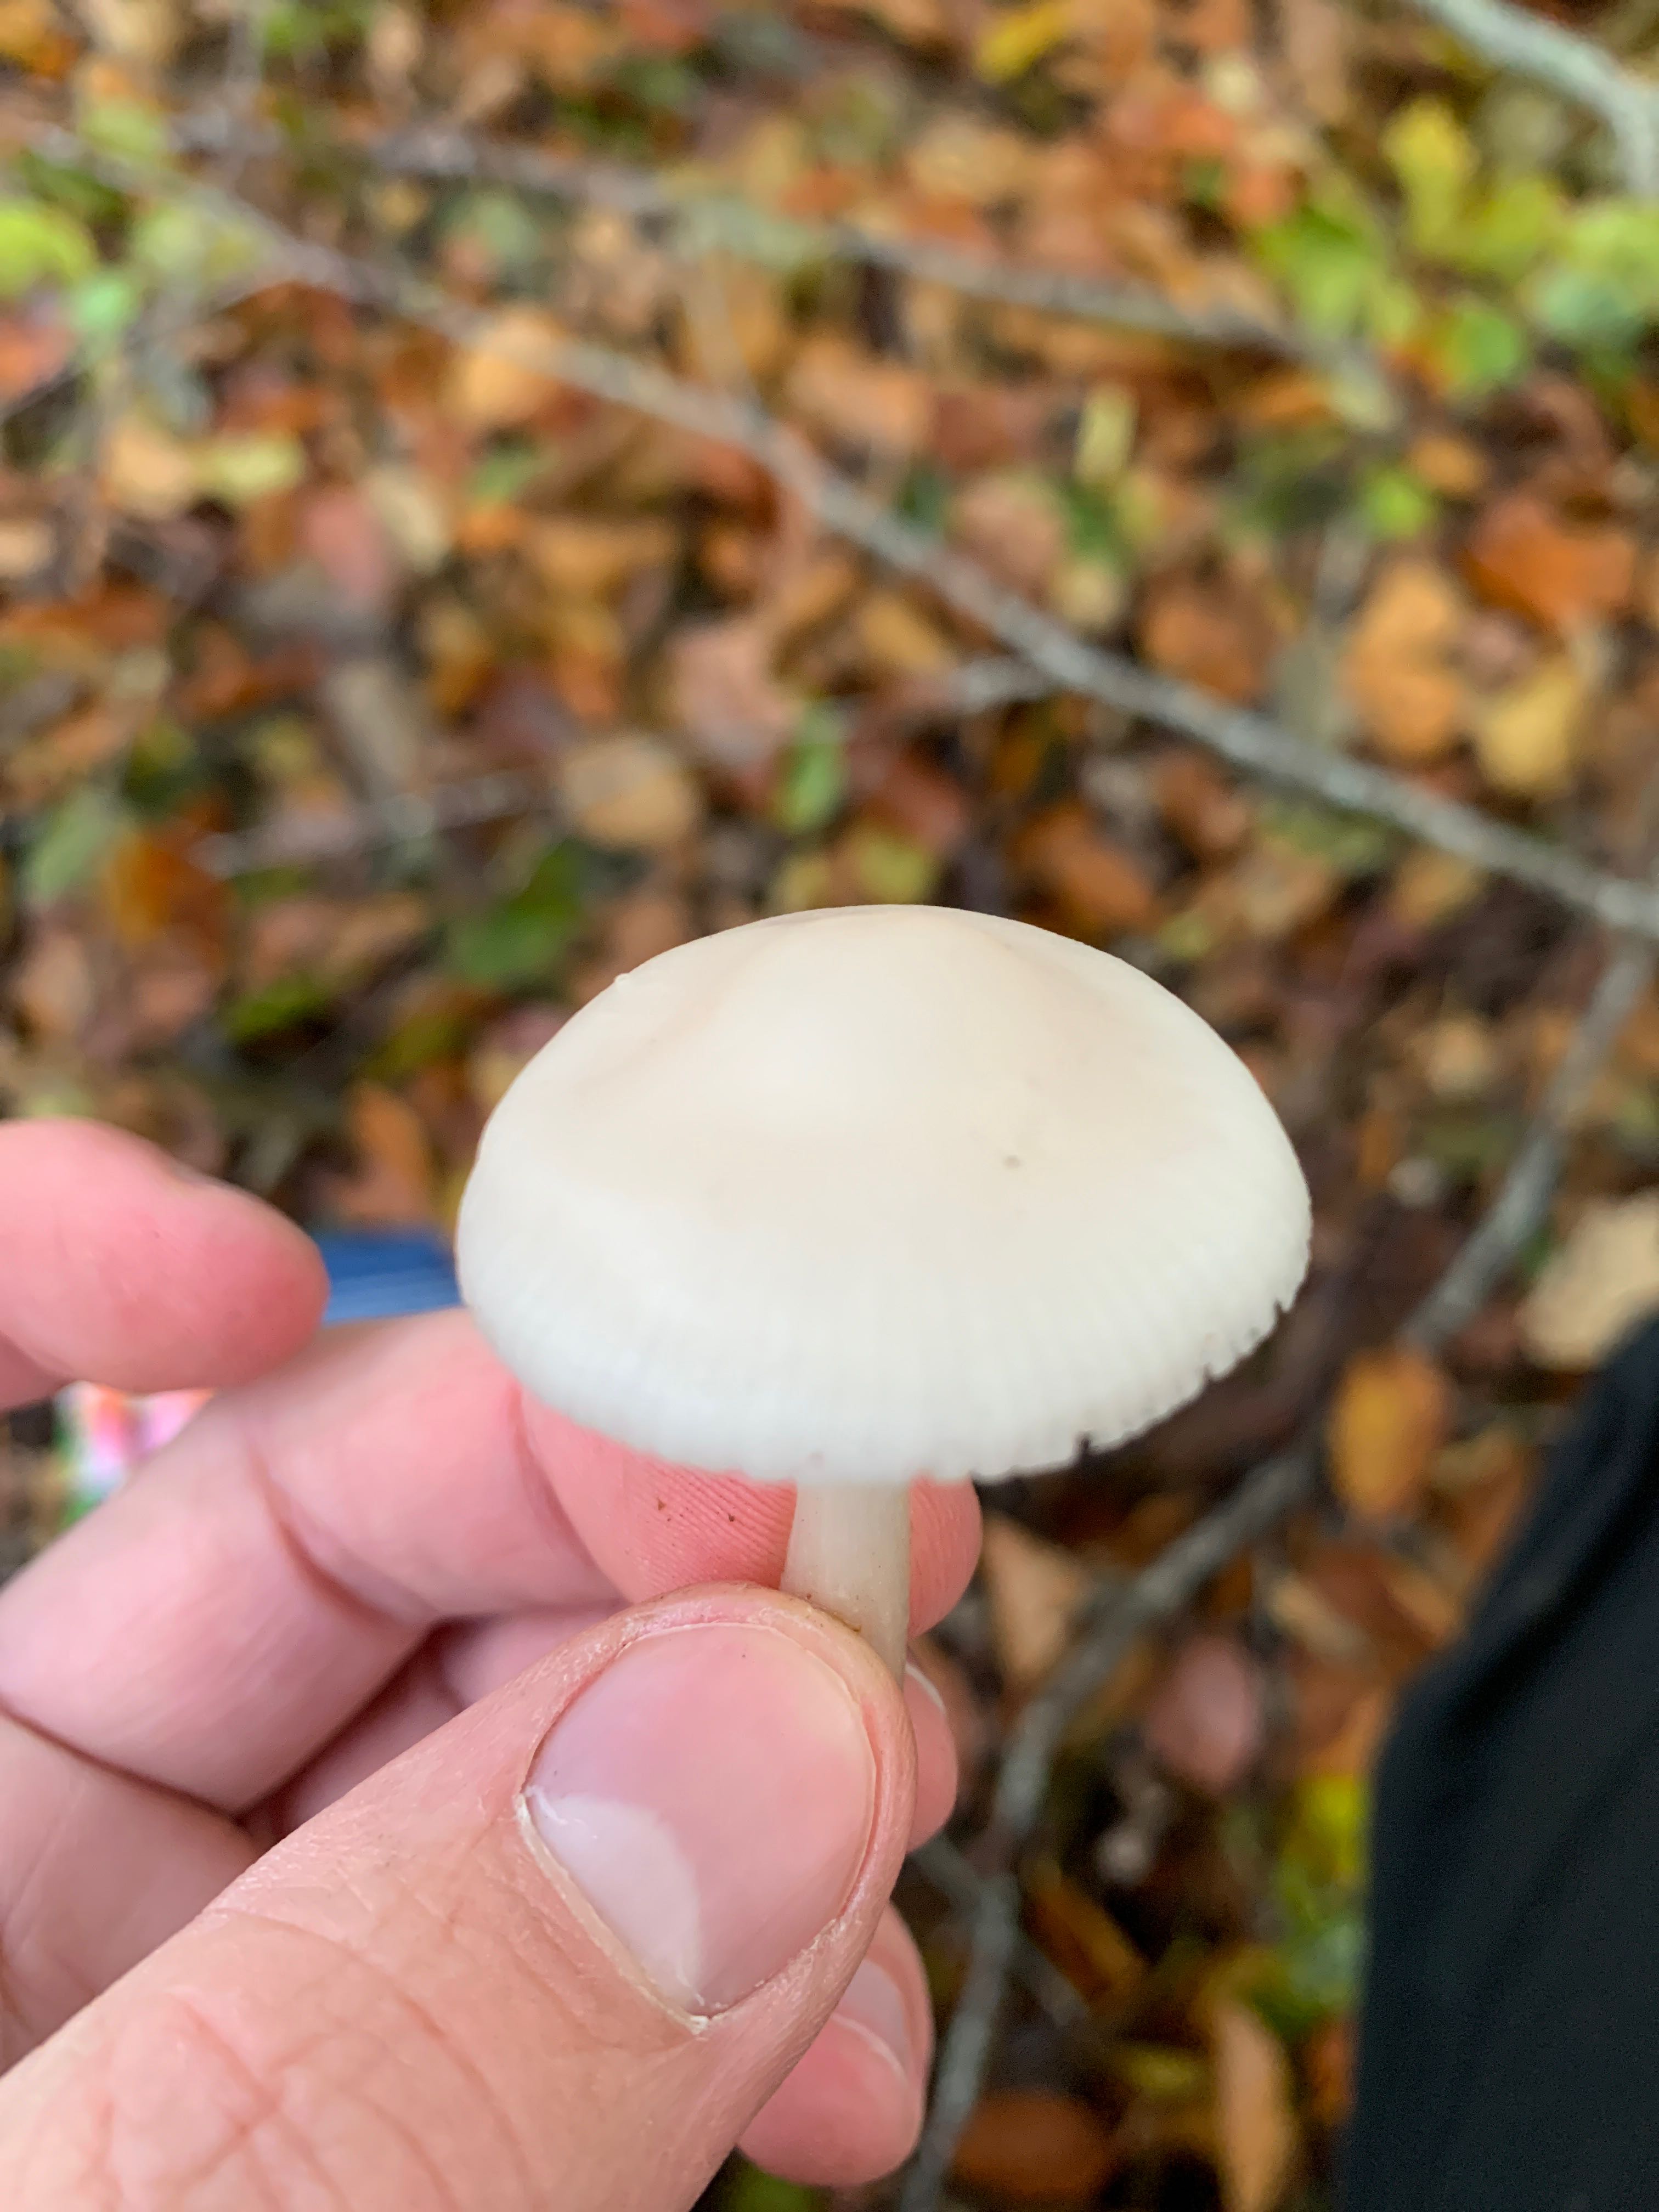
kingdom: Fungi
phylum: Basidiomycota
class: Agaricomycetes
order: Agaricales
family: Mycenaceae
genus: Mycena
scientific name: Mycena rosea
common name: rosa huesvamp
